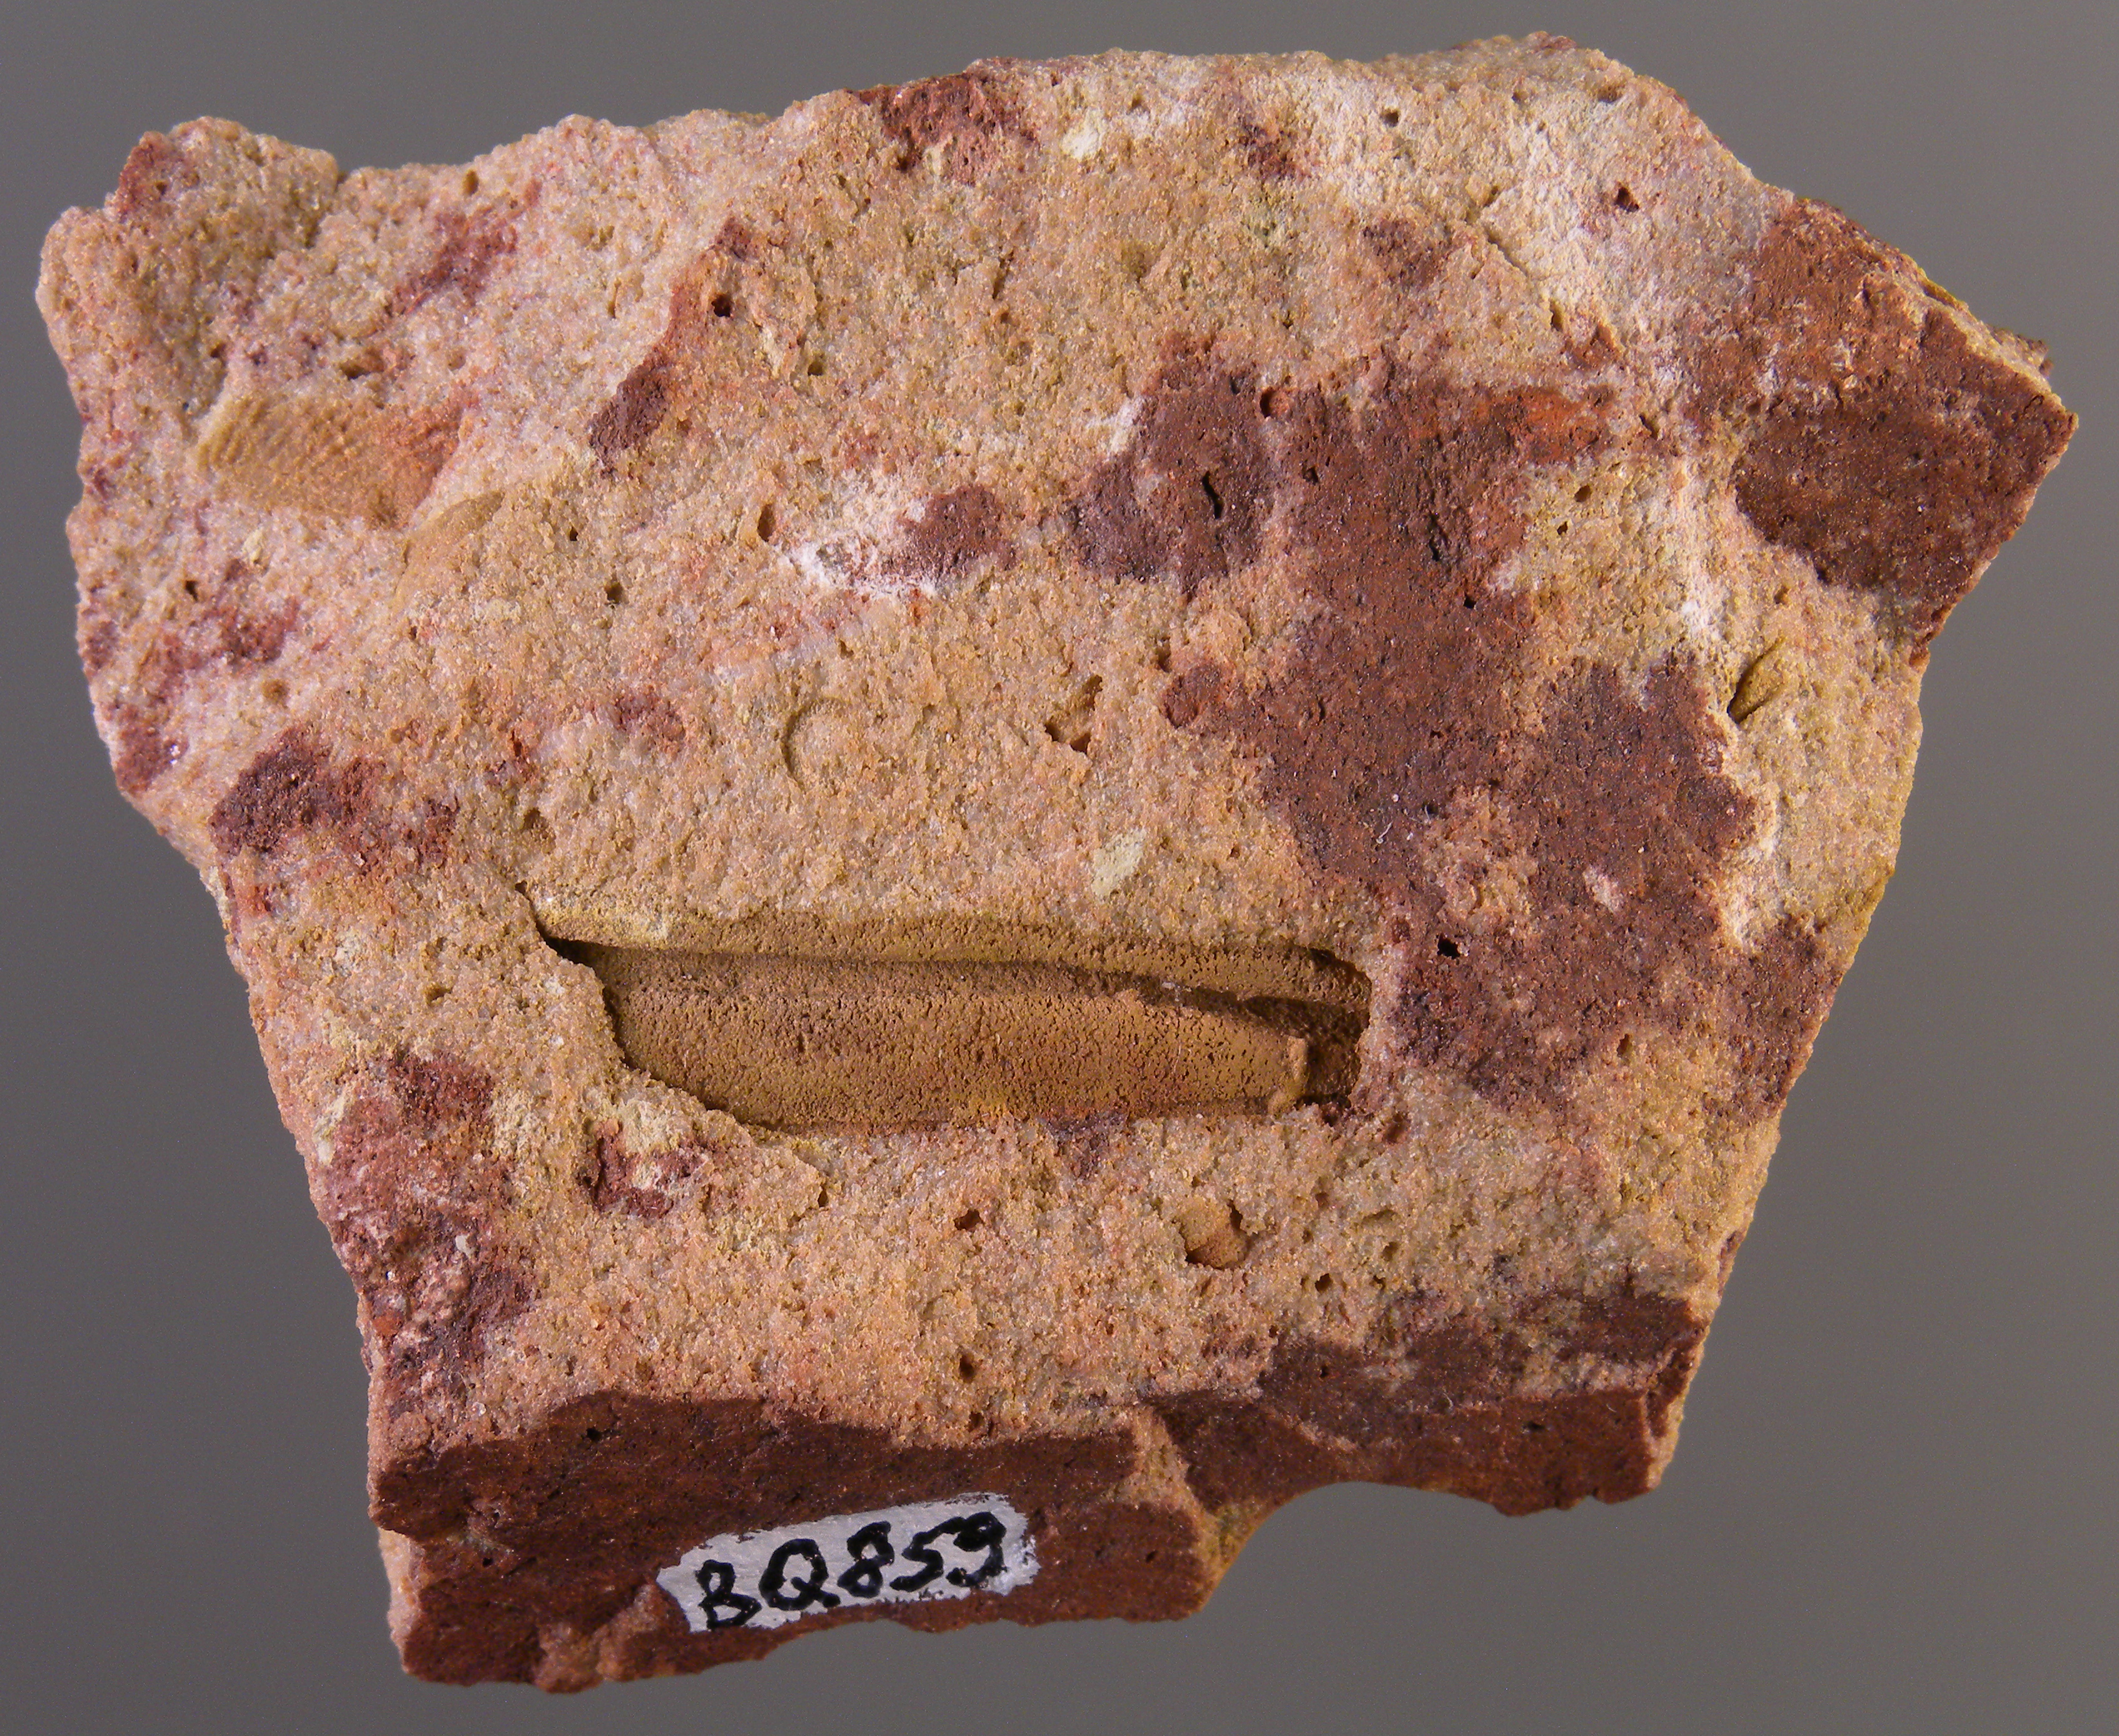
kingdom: Animalia
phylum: Arthropoda
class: Trilobita
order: Phacopida
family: Homalonotidae
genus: Digonus
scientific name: Digonus
